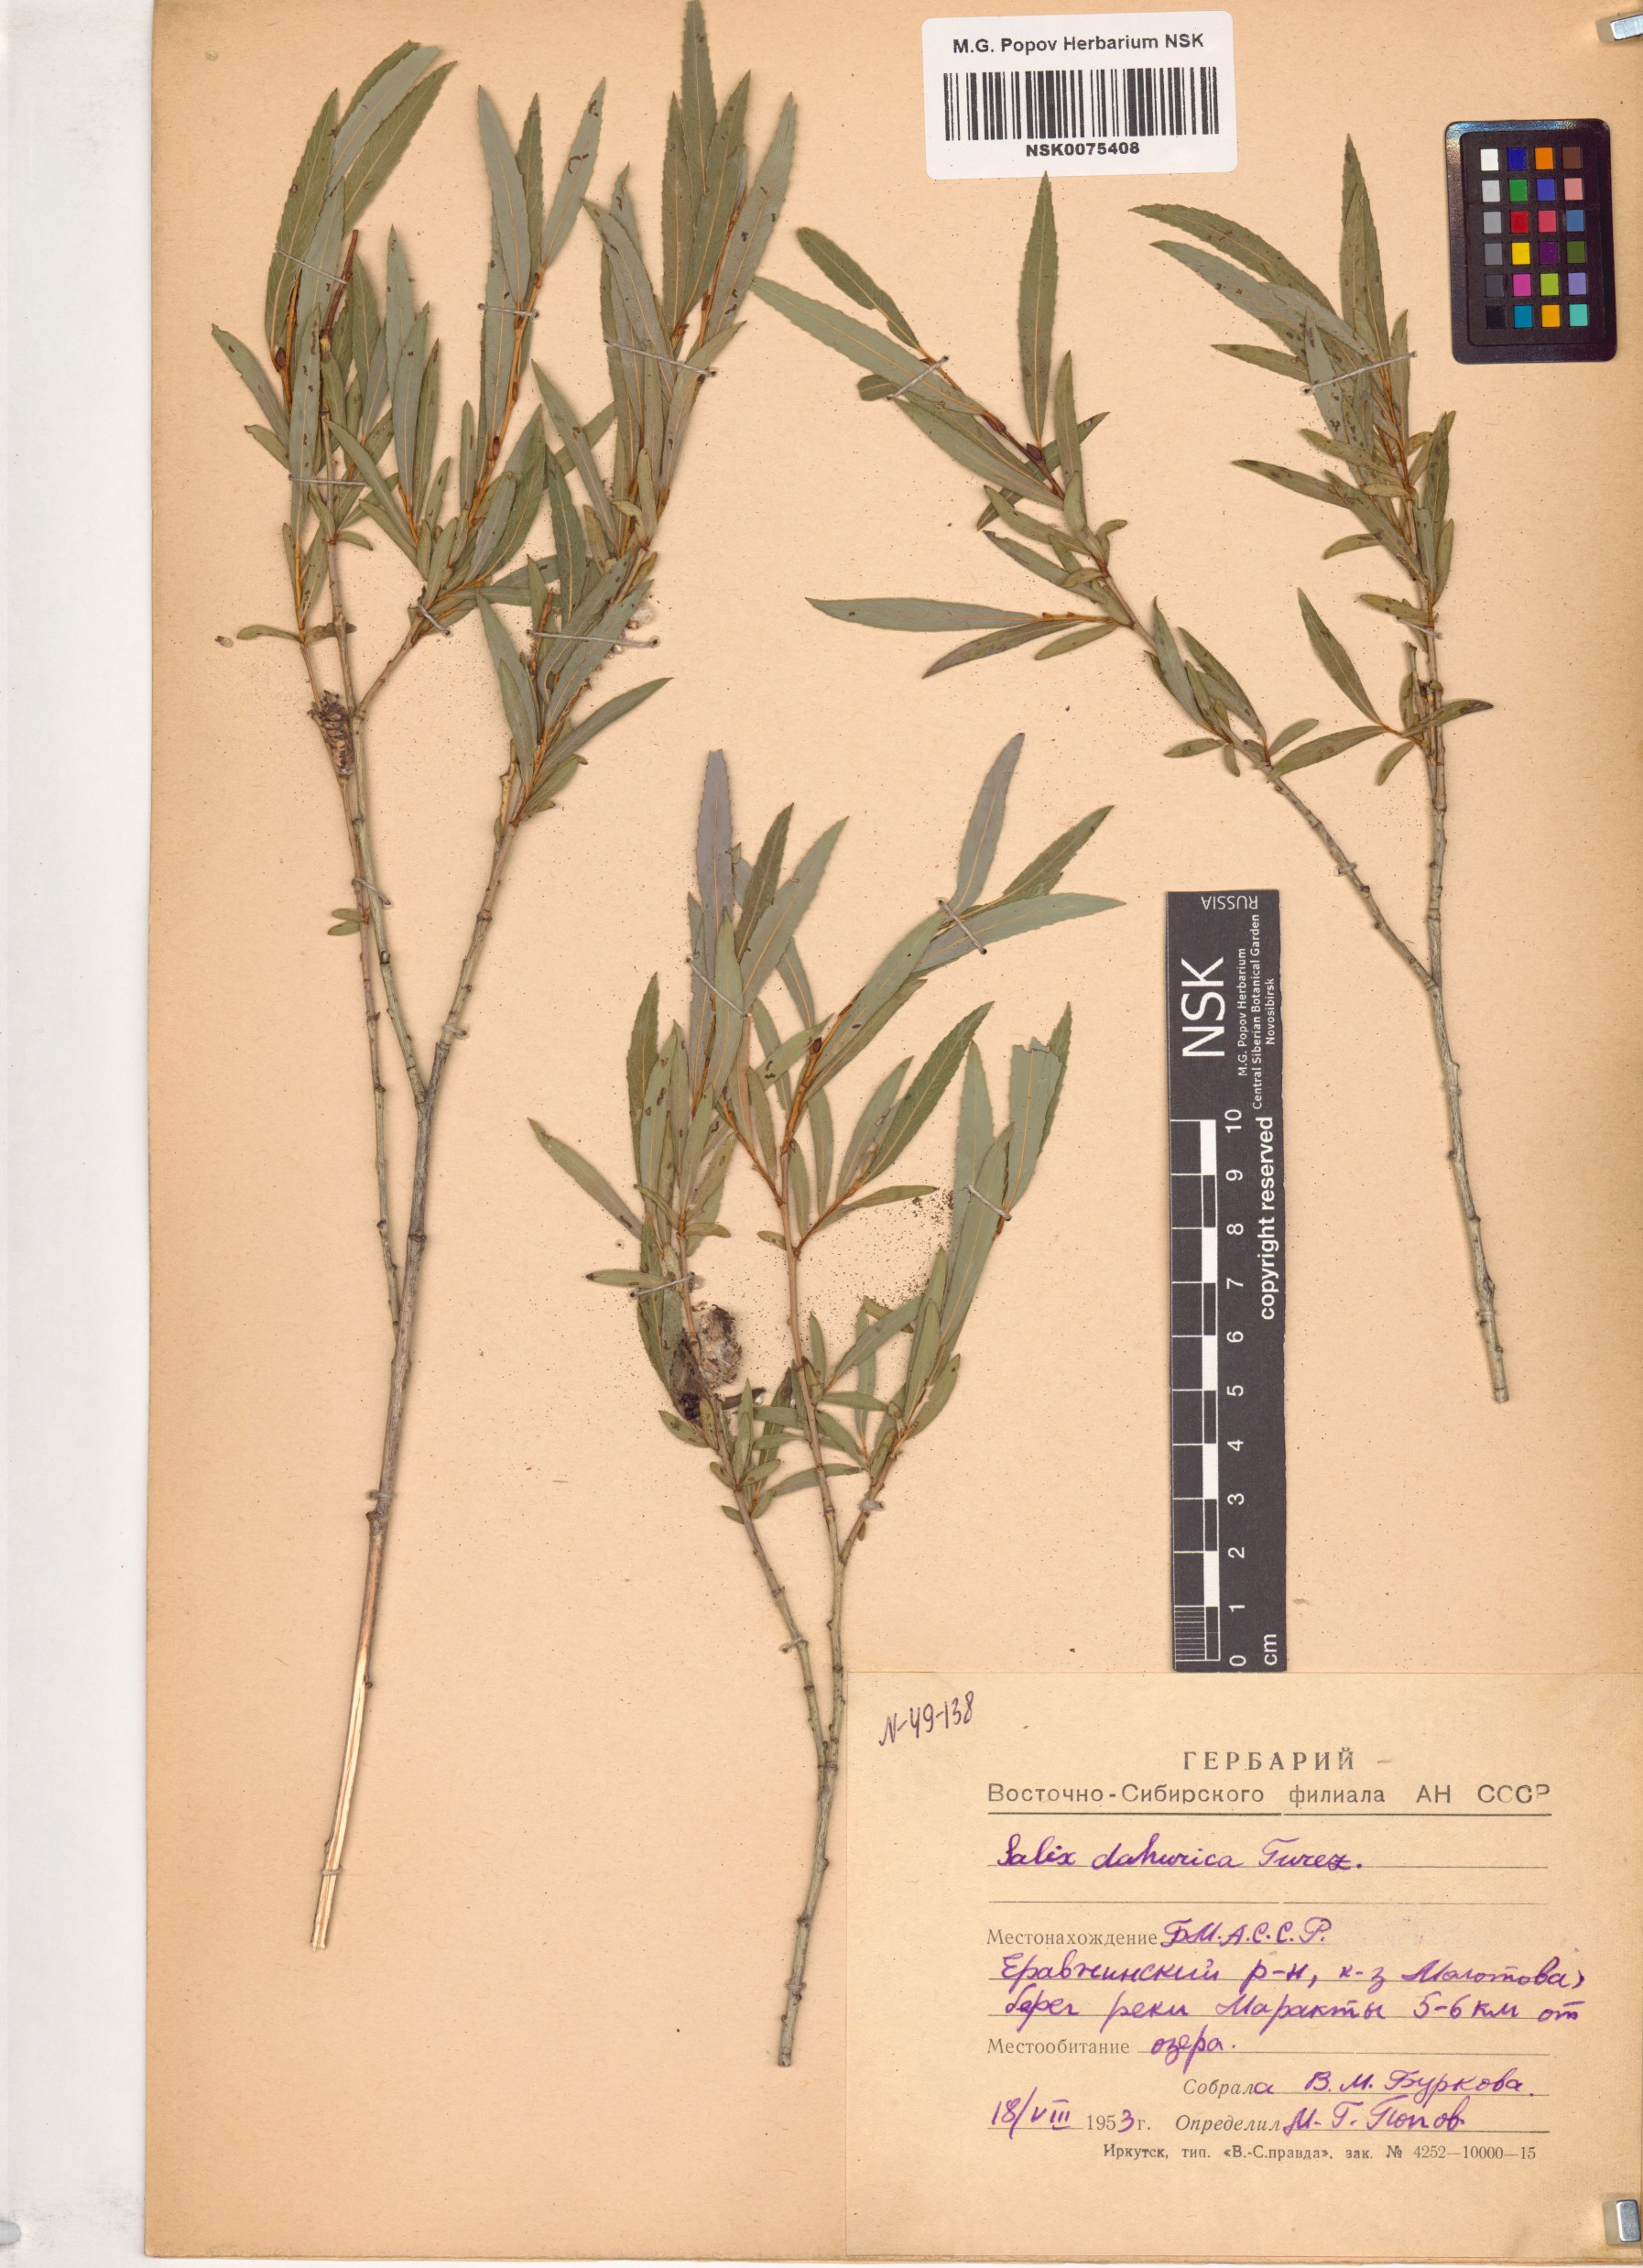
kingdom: Plantae
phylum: Tracheophyta
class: Magnoliopsida
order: Malpighiales
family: Salicaceae
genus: Salix
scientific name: Salix
